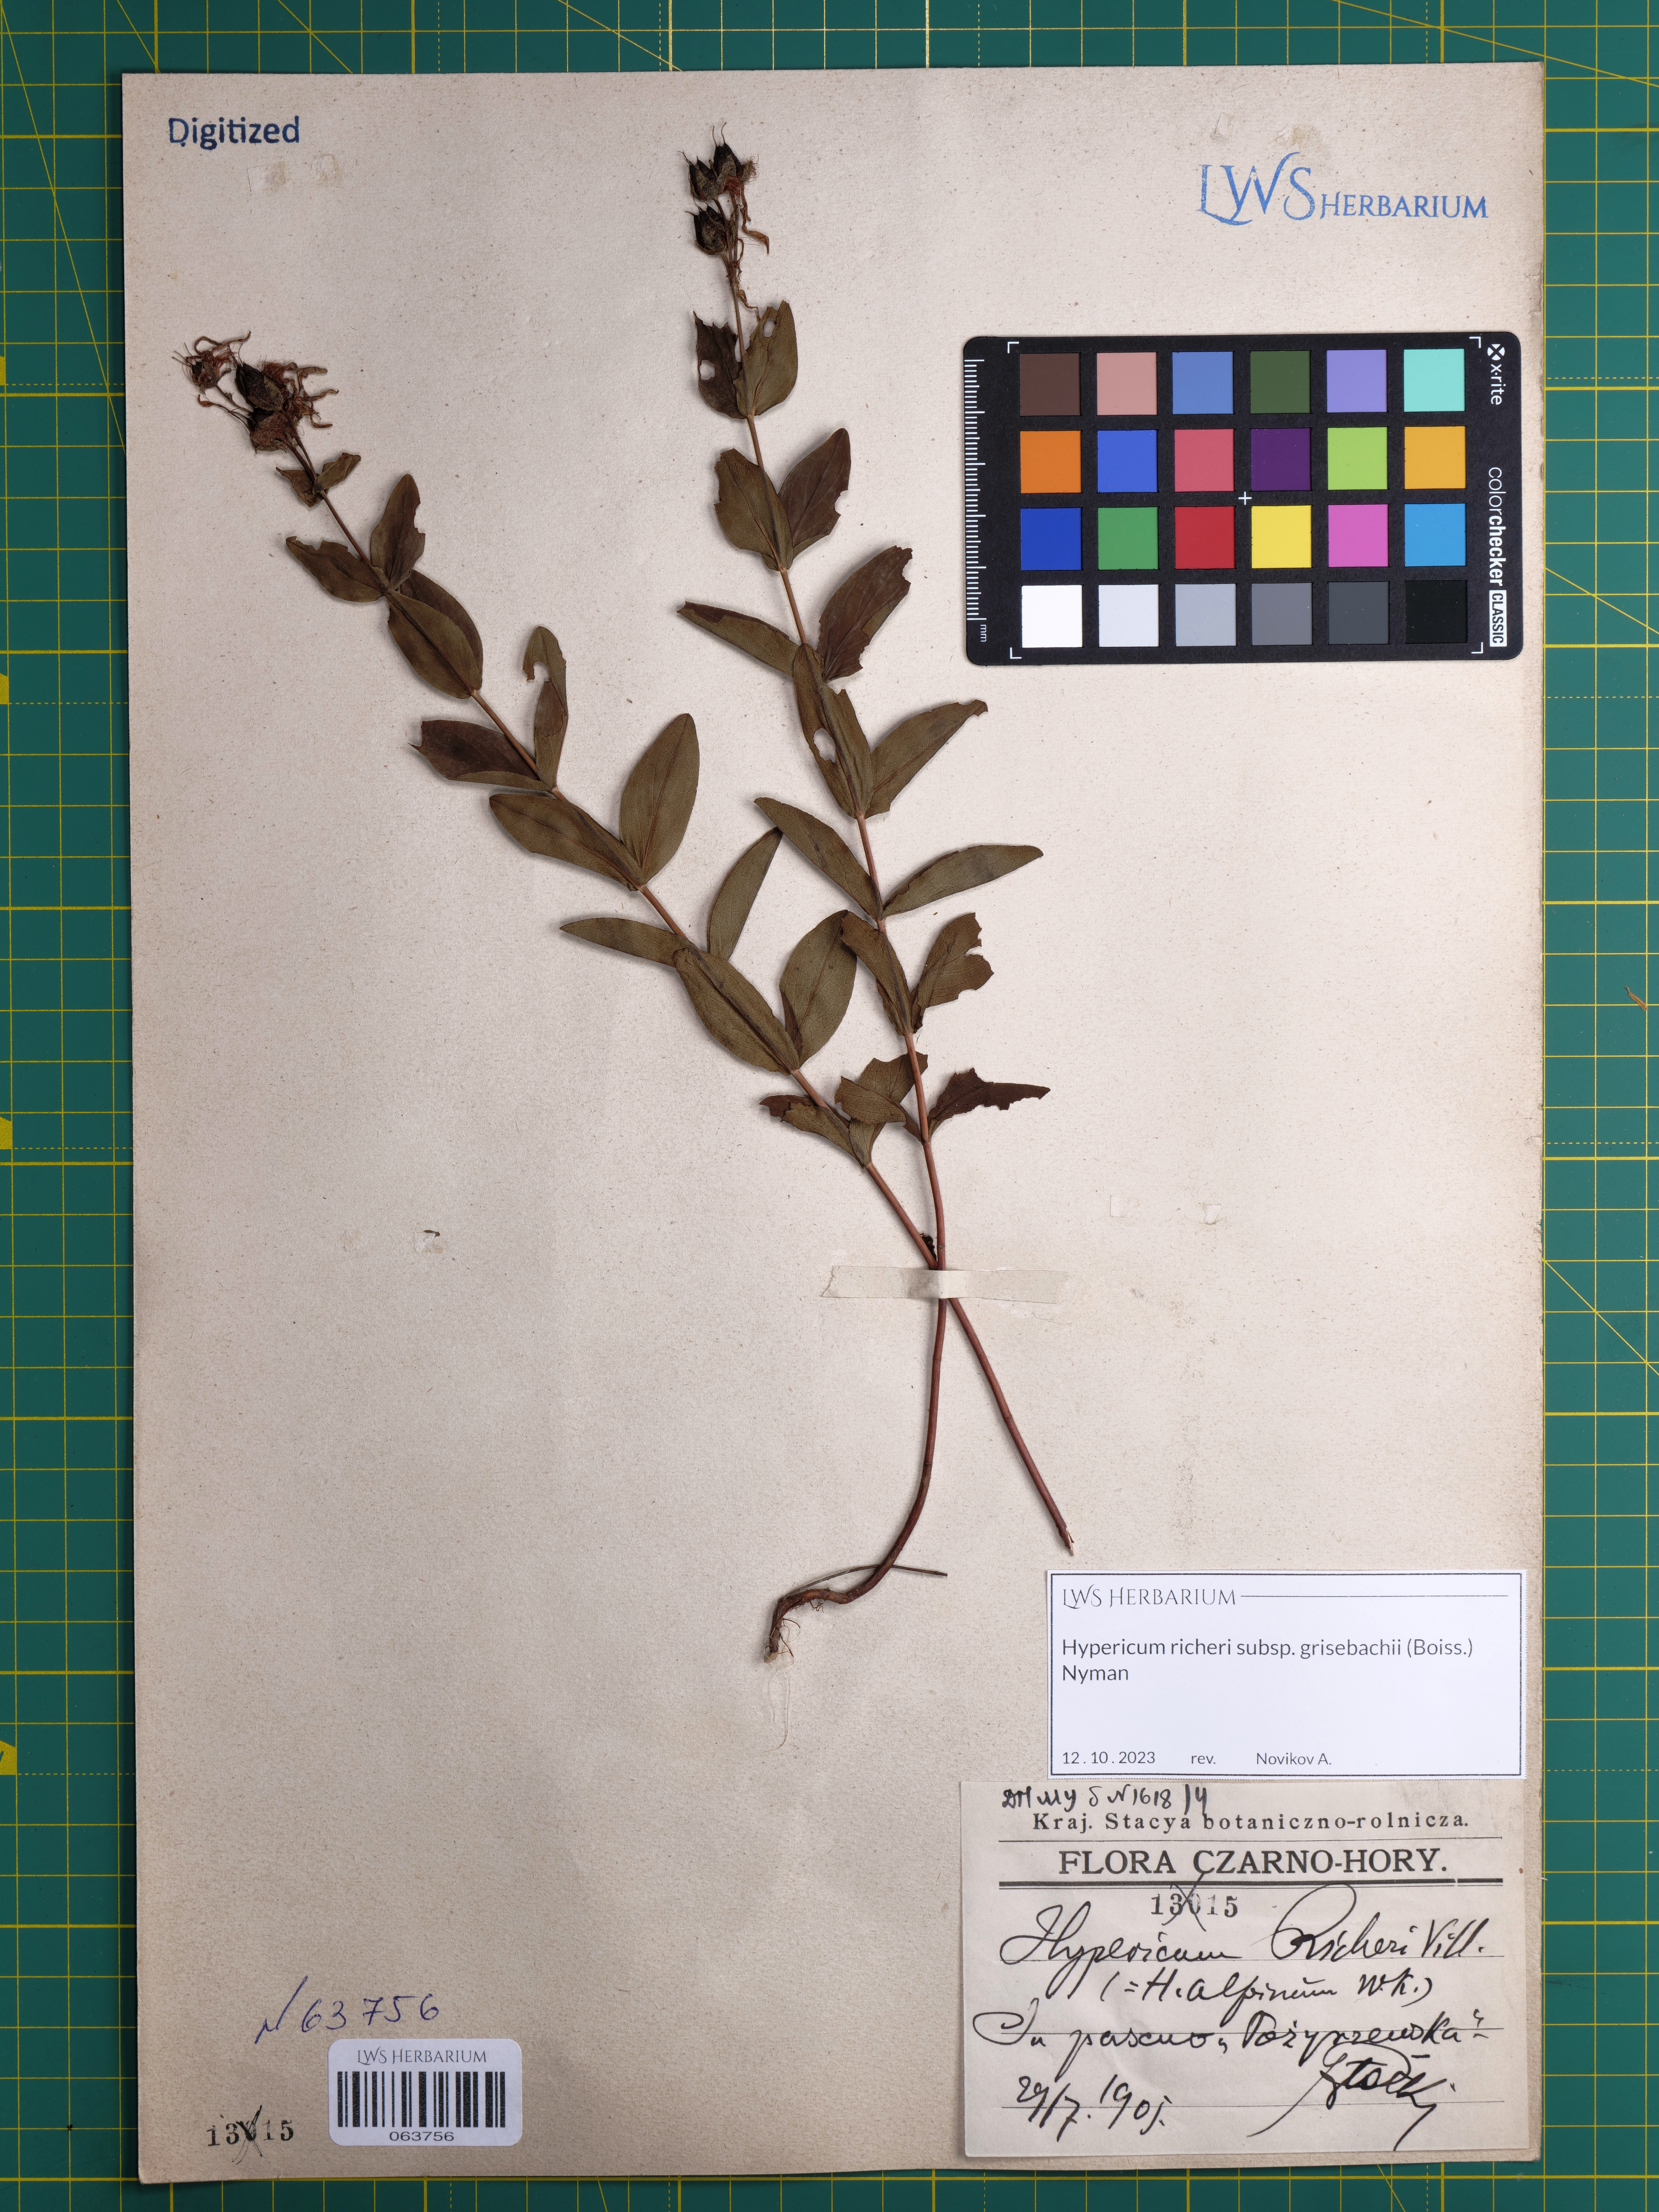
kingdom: Plantae
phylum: Tracheophyta
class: Magnoliopsida
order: Malpighiales
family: Hypericaceae
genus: Hypericum
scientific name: Hypericum richeri
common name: Alpine st john's-wort
